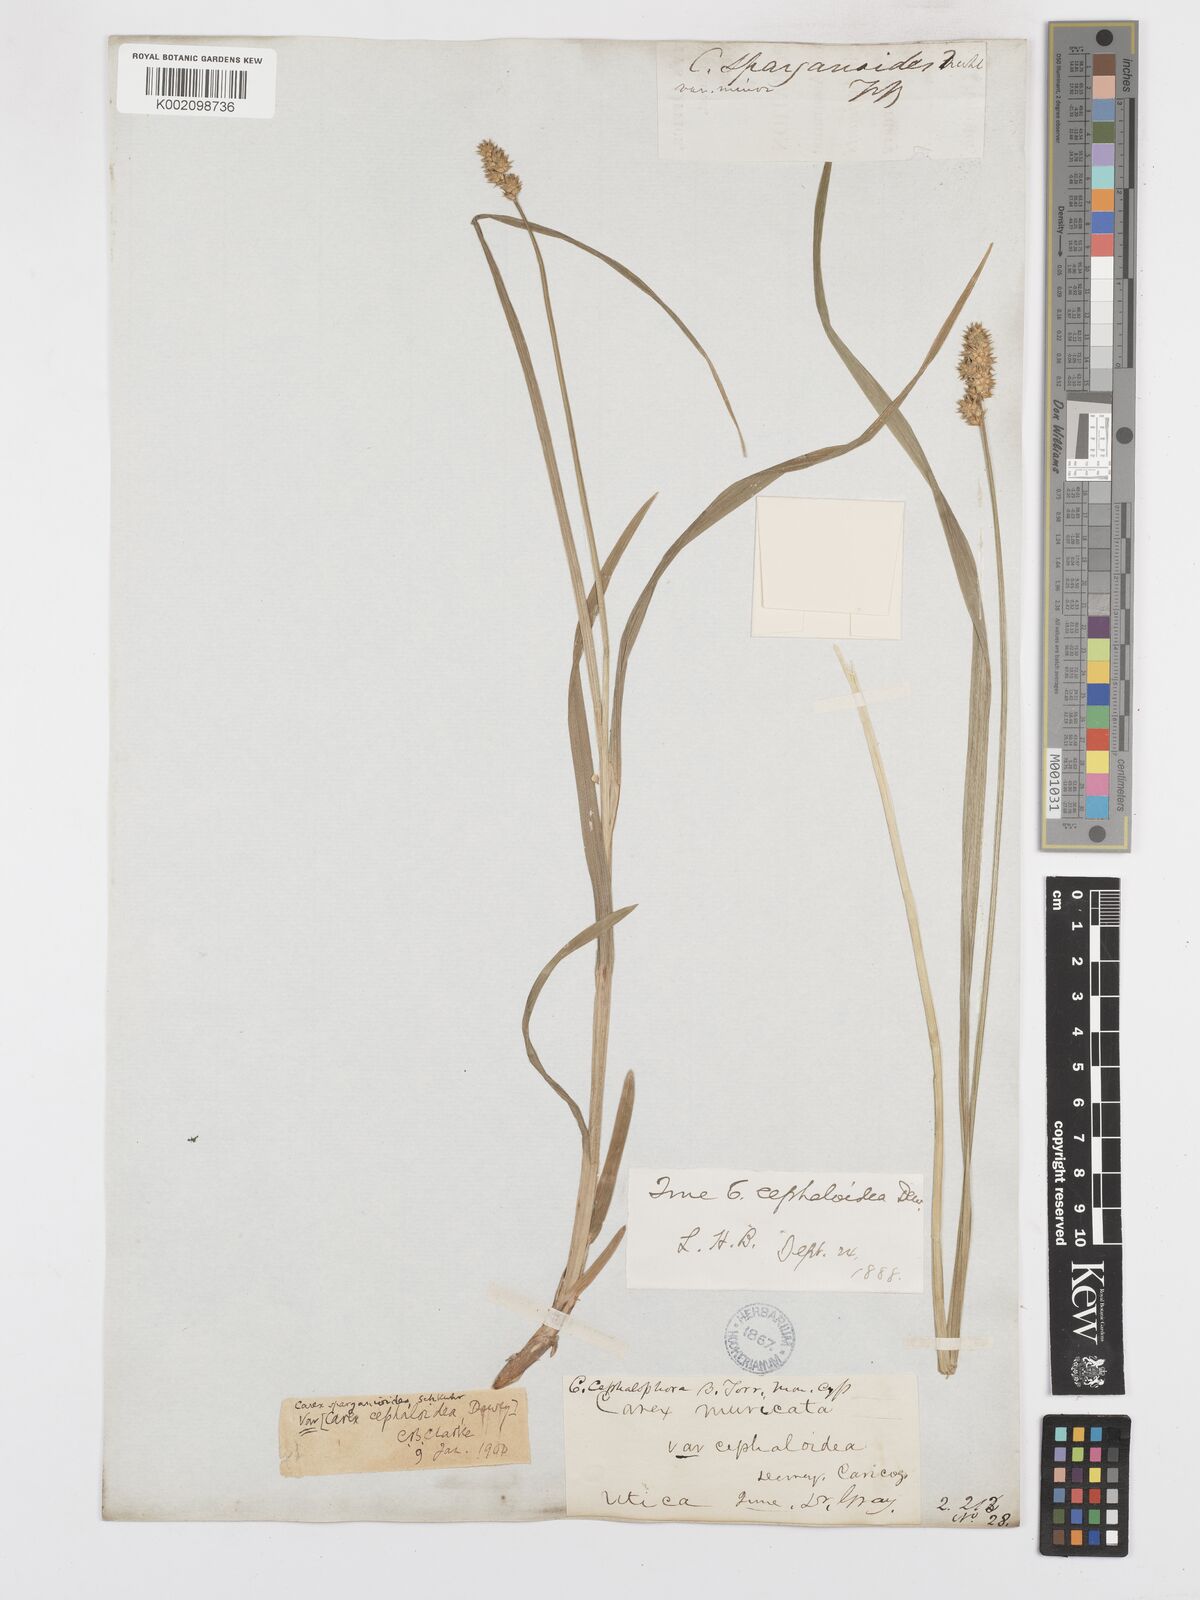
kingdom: Plantae
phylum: Tracheophyta
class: Liliopsida
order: Poales
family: Cyperaceae
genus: Carex
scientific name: Carex cephaloidea
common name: Thin-leaved sedge
